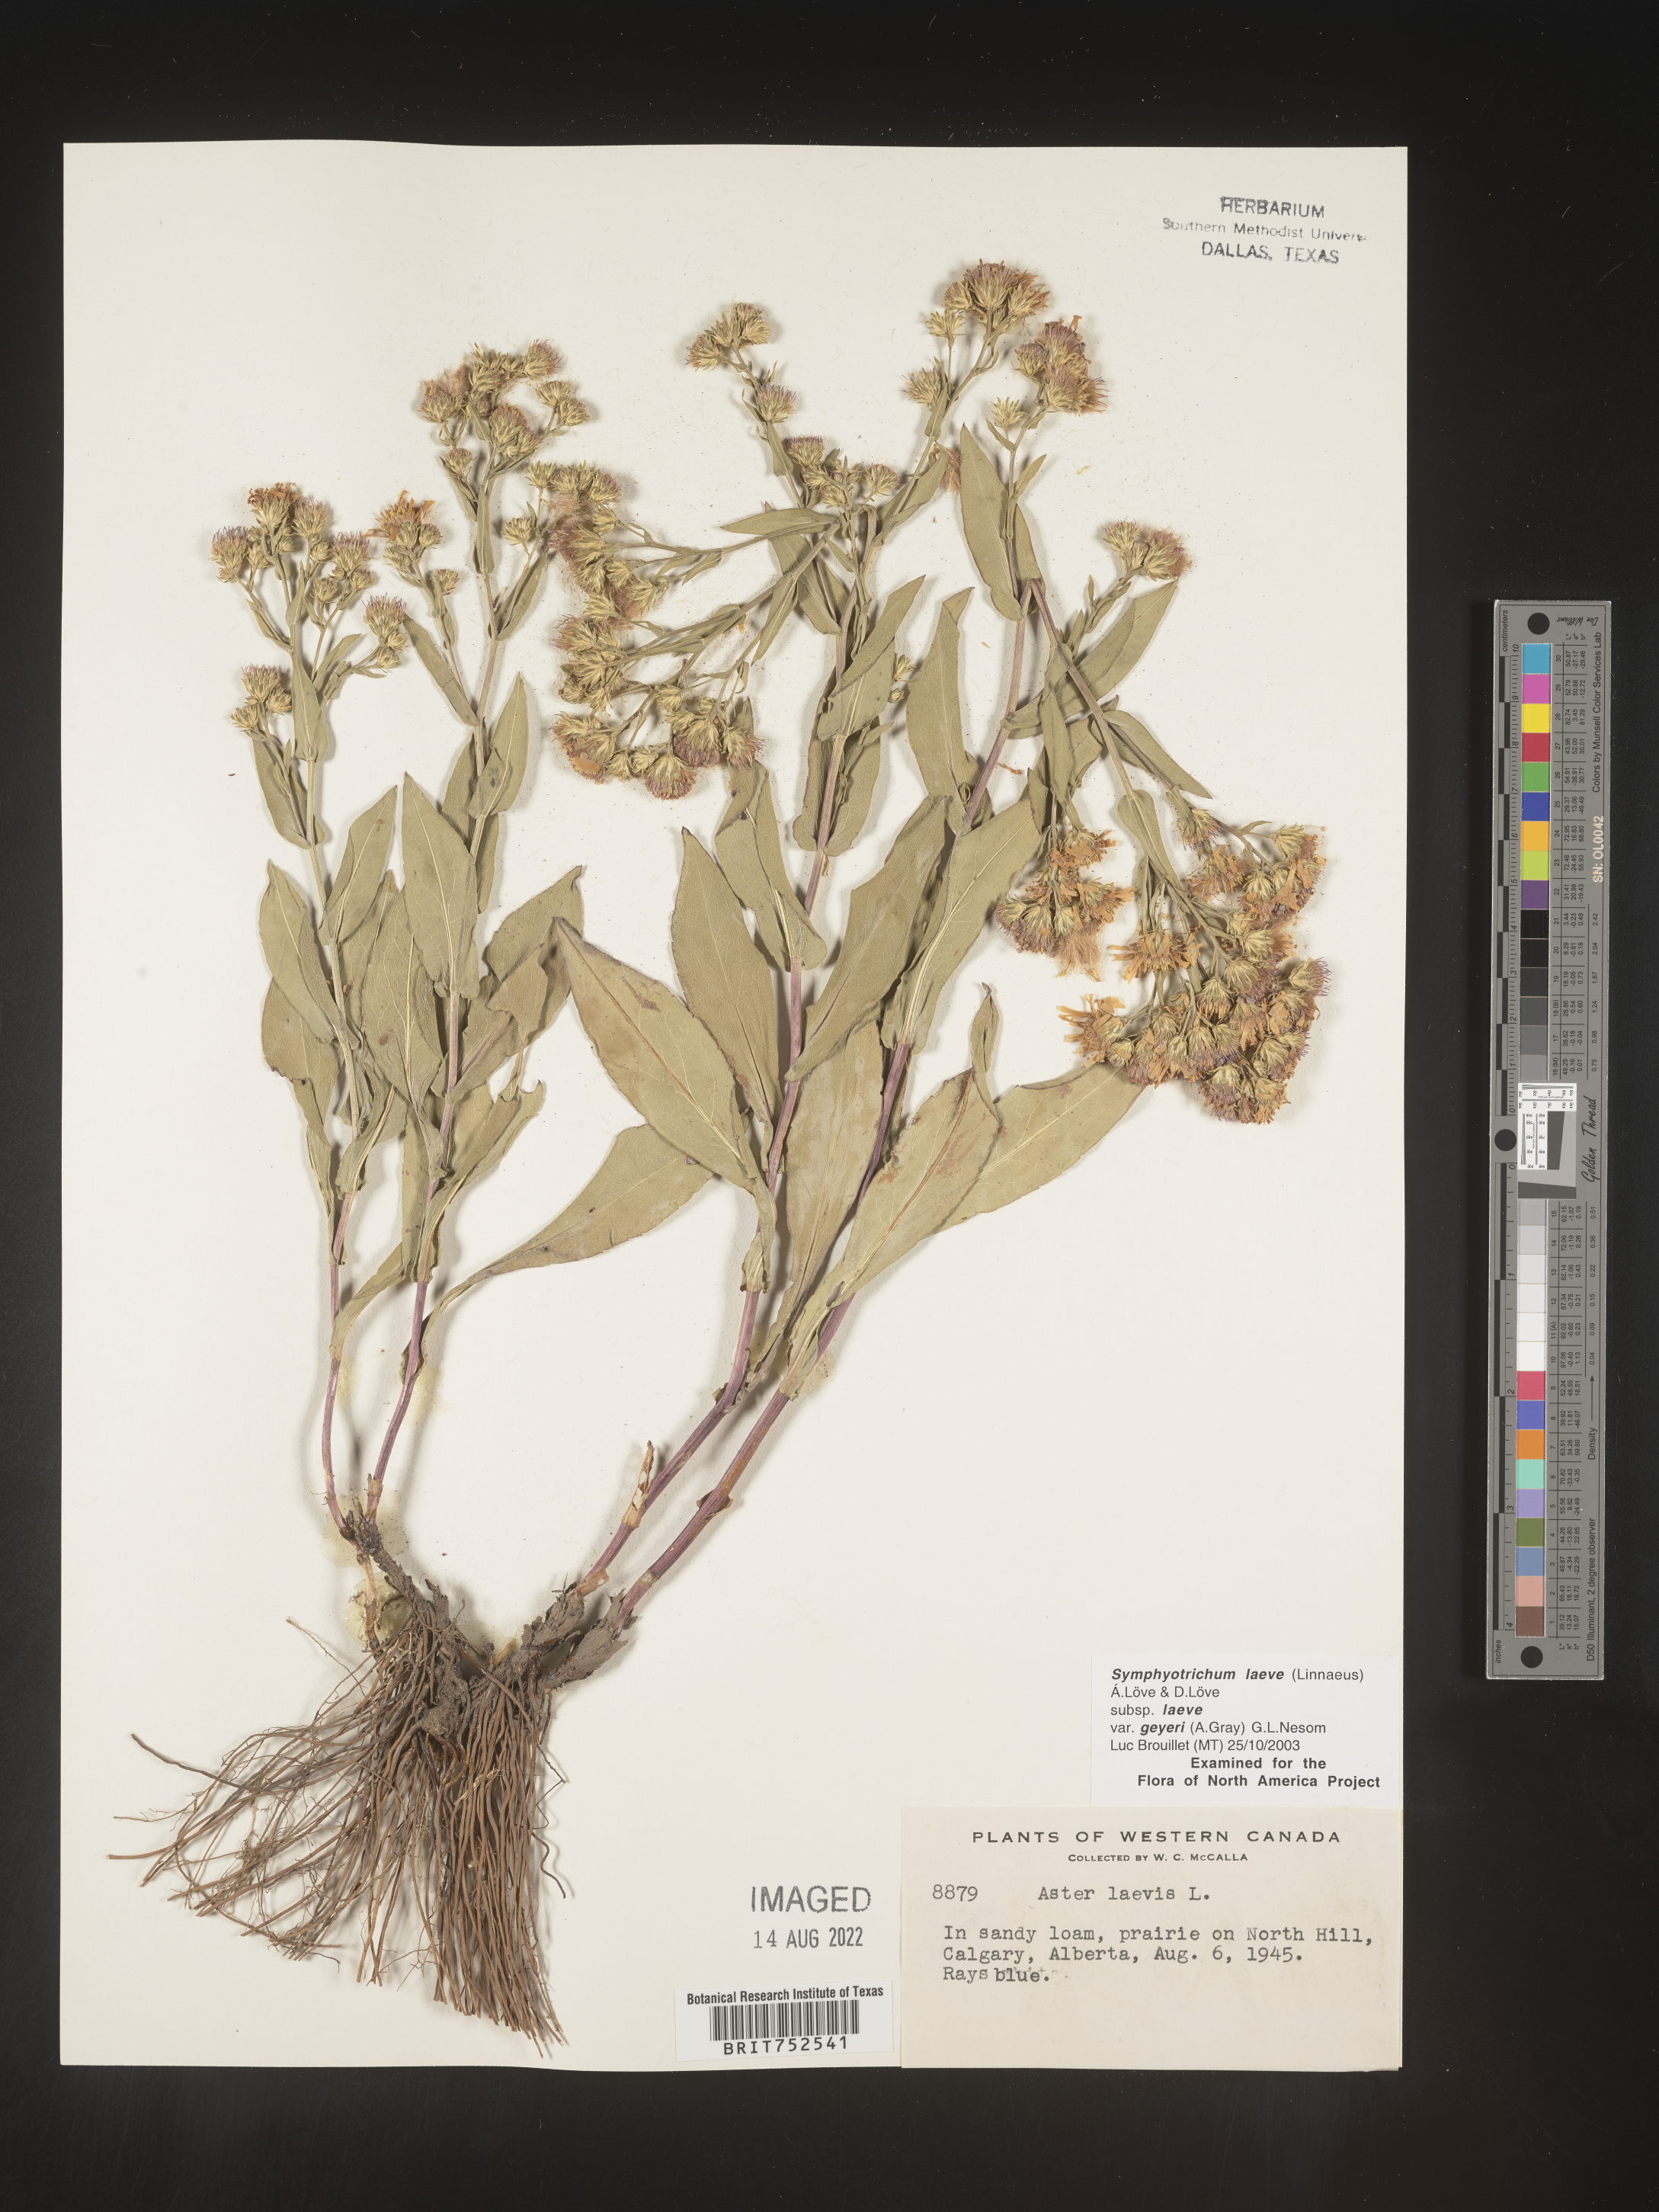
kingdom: Plantae
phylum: Tracheophyta
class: Magnoliopsida
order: Asterales
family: Asteraceae
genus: Symphyotrichum
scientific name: Symphyotrichum laeve
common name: Glaucous aster
